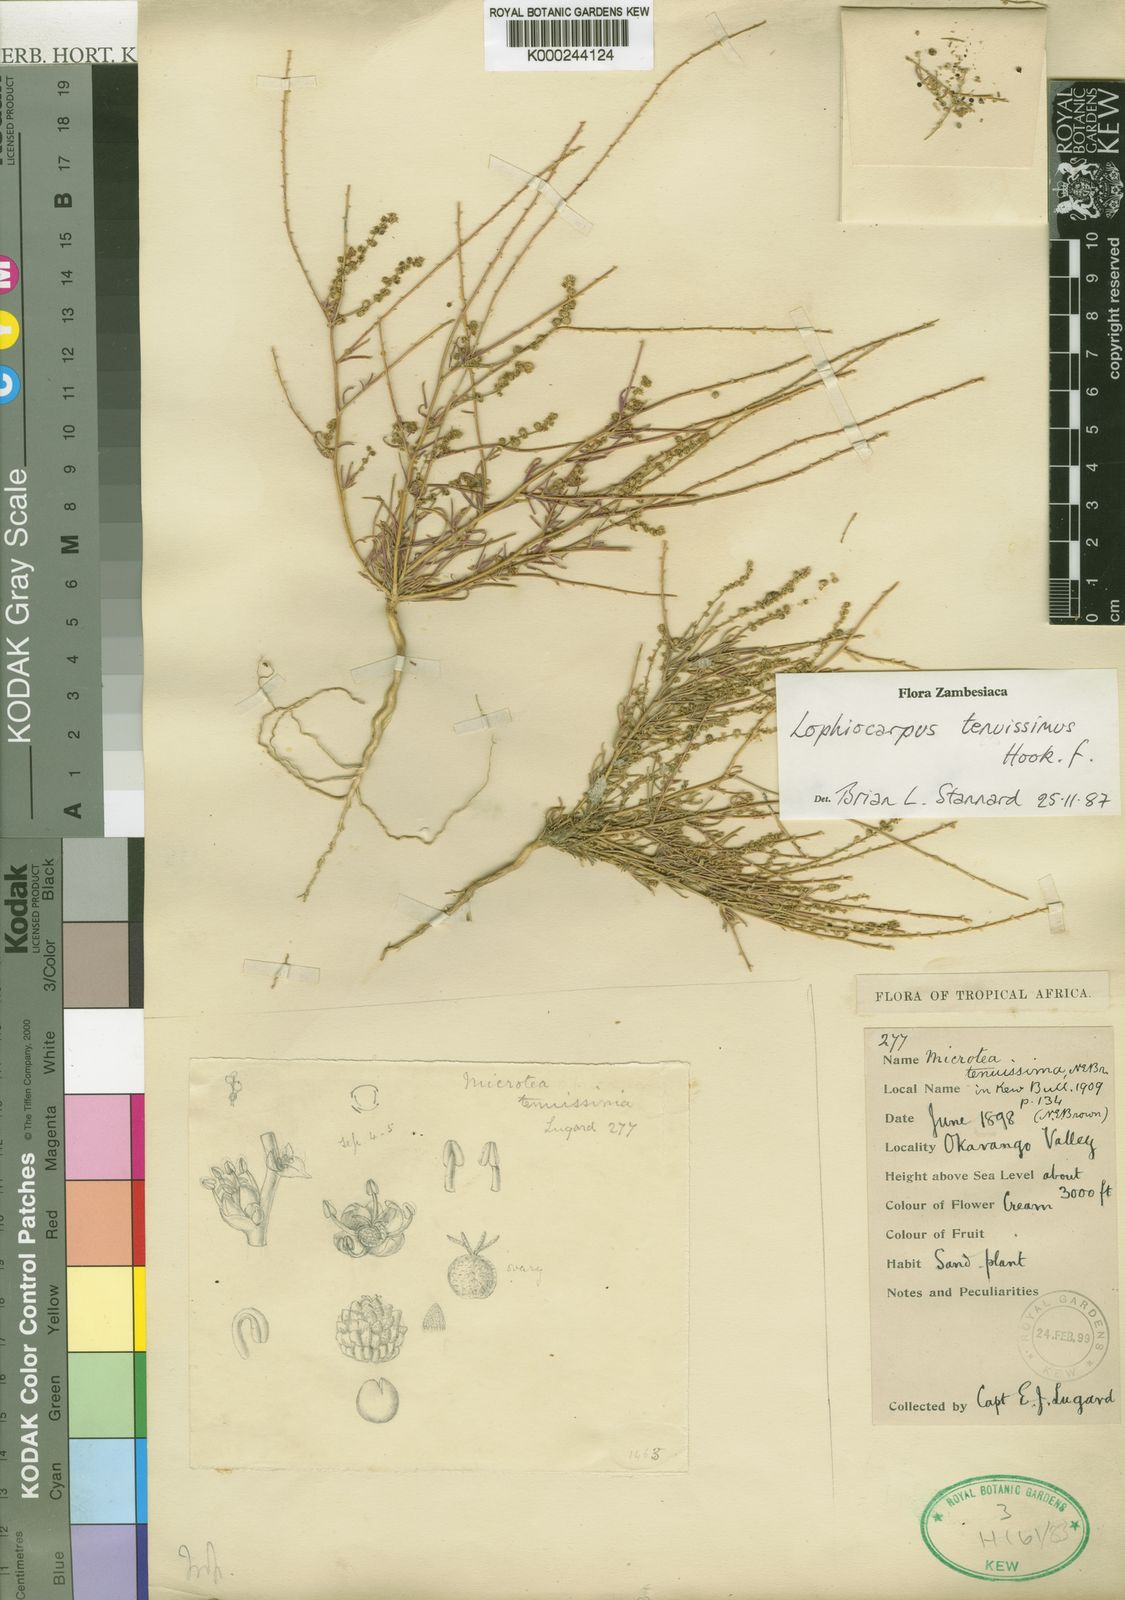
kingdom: Plantae
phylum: Tracheophyta
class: Magnoliopsida
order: Caryophyllales
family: Lophiocarpaceae
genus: Lophiocarpus
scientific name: Lophiocarpus tenuissimus
